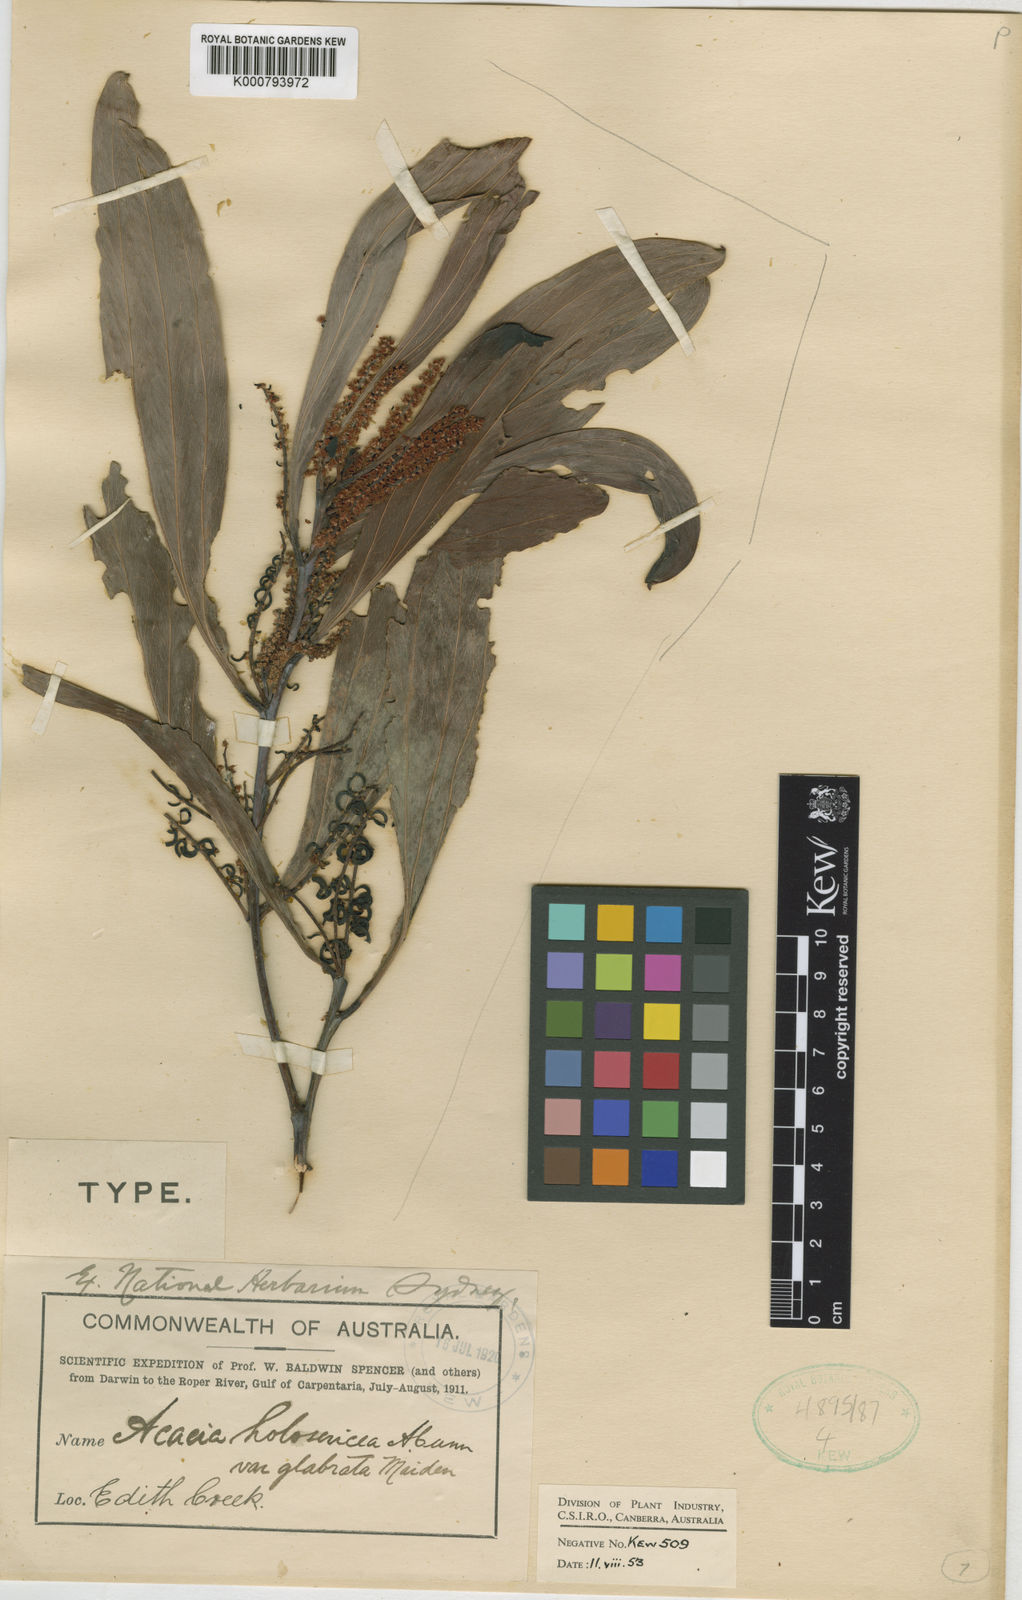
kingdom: Plantae
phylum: Tracheophyta
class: Magnoliopsida
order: Fabales
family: Fabaceae
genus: Acacia
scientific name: Acacia mangium
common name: Black wattle
